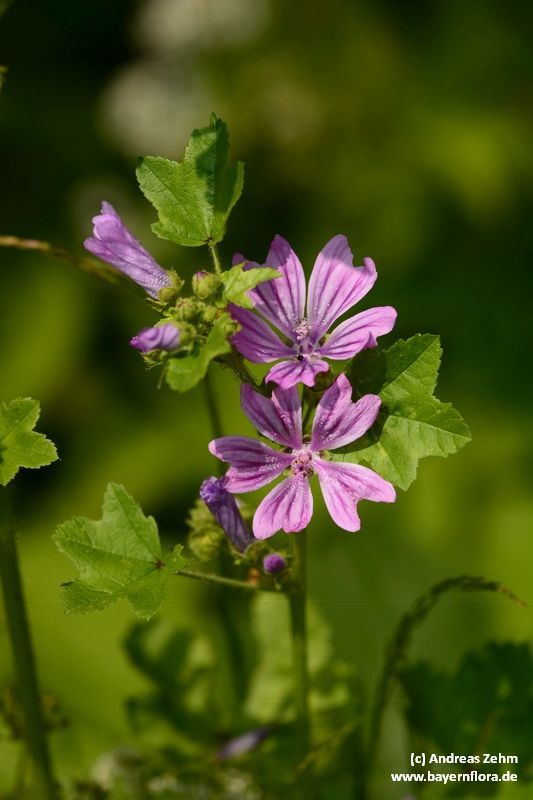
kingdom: Plantae
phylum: Tracheophyta
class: Magnoliopsida
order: Malvales
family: Malvaceae
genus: Malva
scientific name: Malva sylvestris
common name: Common mallow
